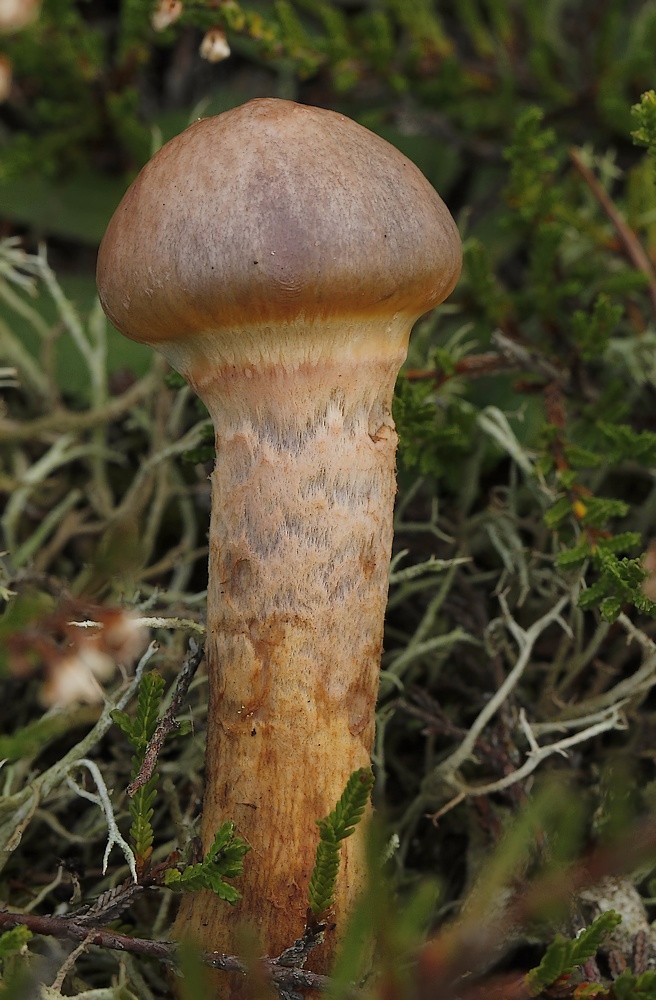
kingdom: Fungi
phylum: Basidiomycota
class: Agaricomycetes
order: Boletales
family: Gomphidiaceae
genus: Chroogomphus
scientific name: Chroogomphus rutilus
